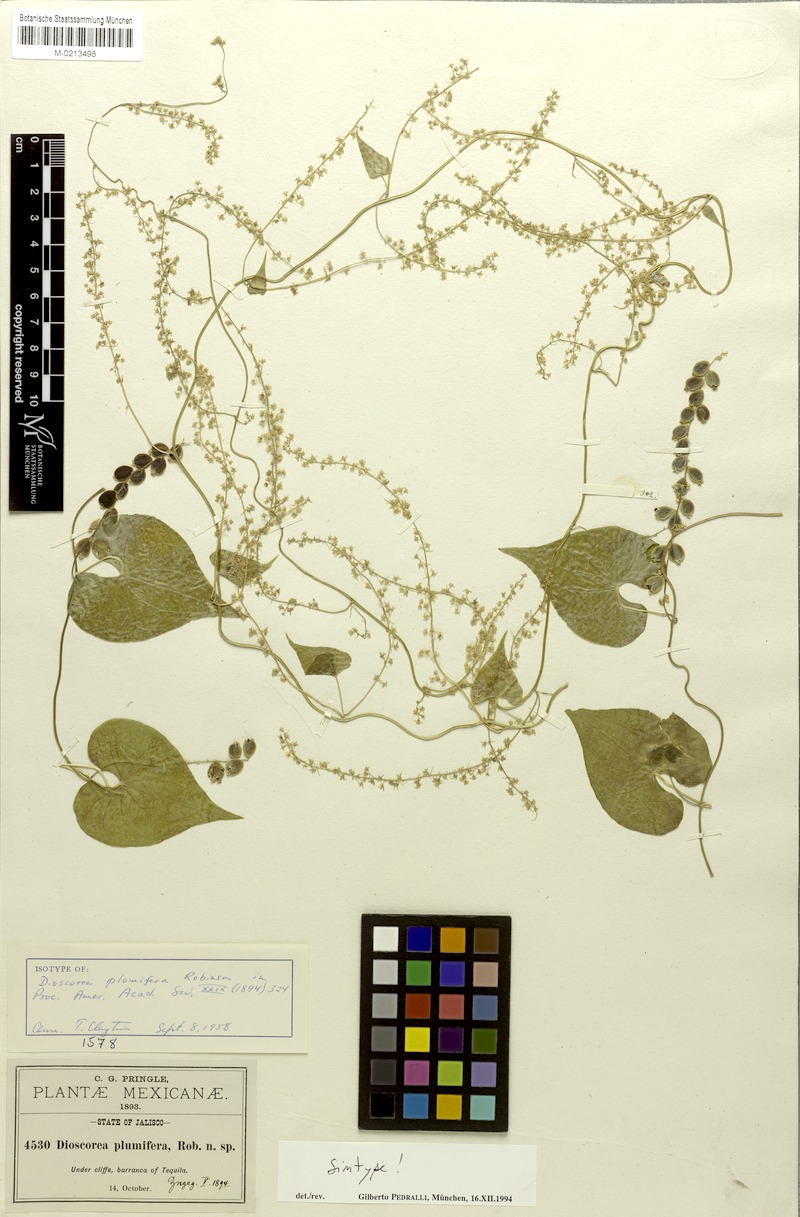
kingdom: Plantae
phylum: Tracheophyta
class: Liliopsida
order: Dioscoreales
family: Dioscoreaceae
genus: Dioscorea
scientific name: Dioscorea plumifera
